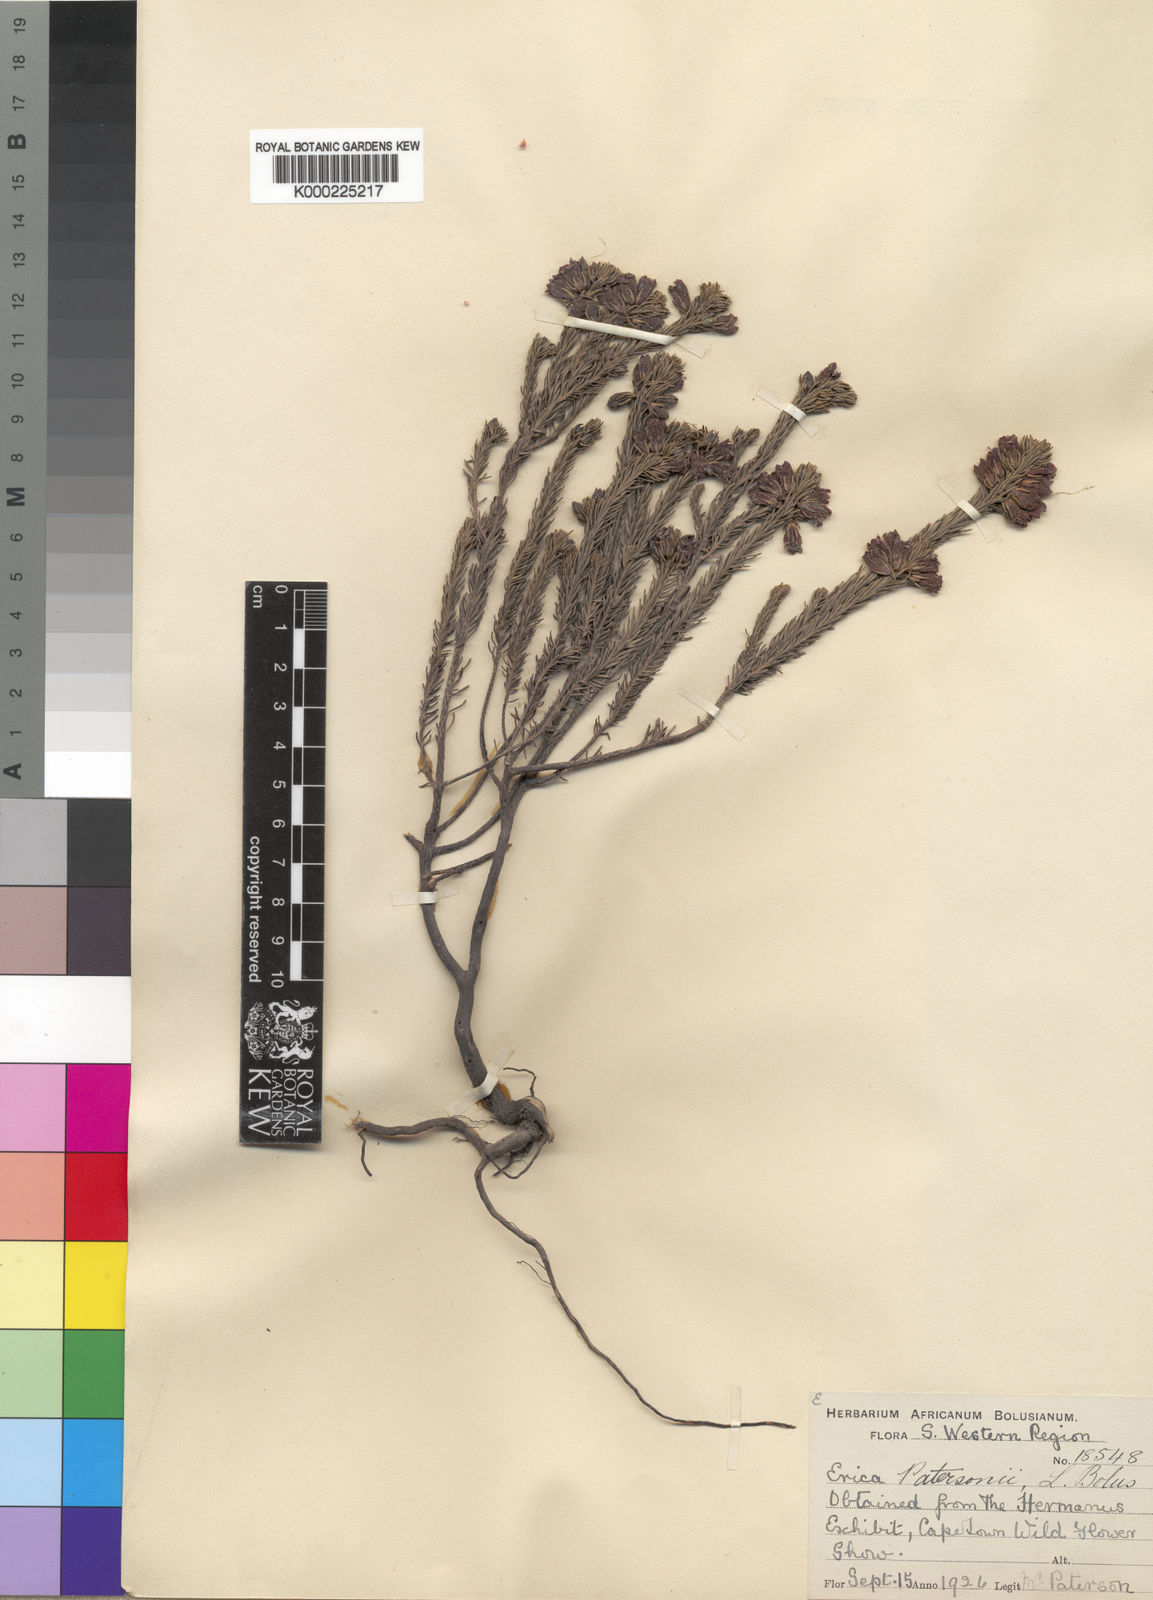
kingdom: Plantae
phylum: Tracheophyta
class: Magnoliopsida
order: Ericales
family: Ericaceae
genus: Erica
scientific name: Erica viscaria
